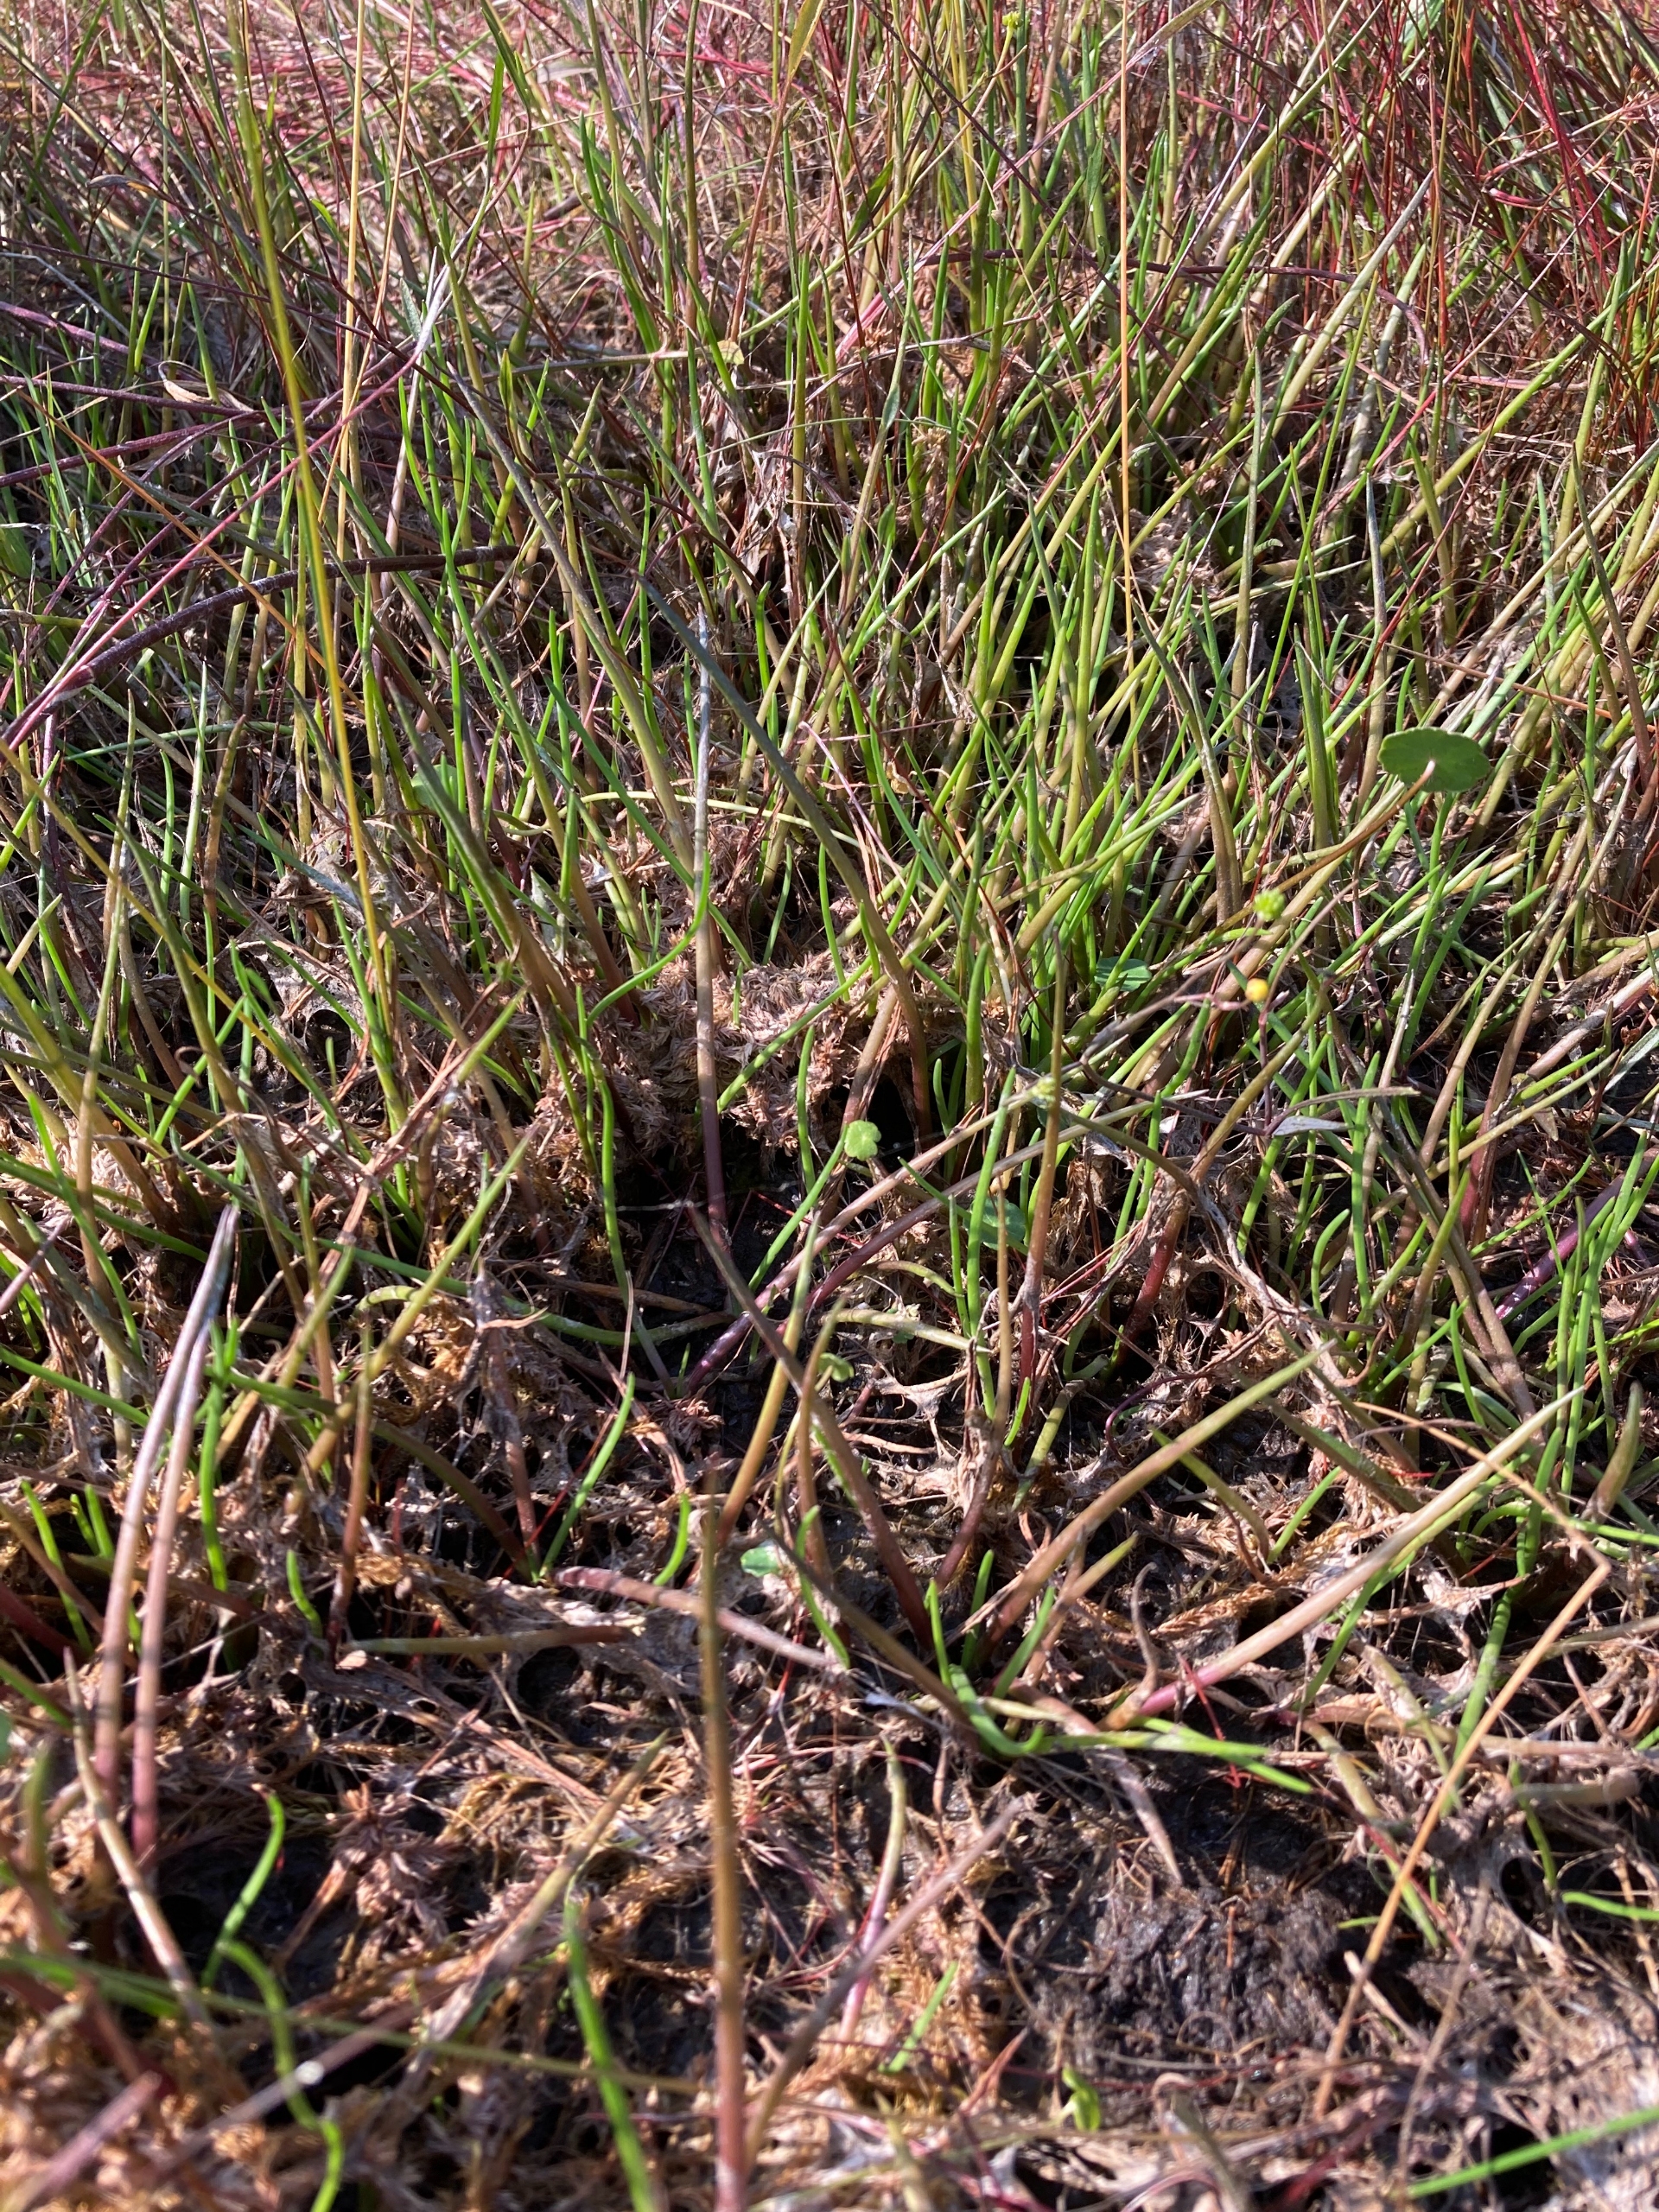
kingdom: Plantae
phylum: Tracheophyta
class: Magnoliopsida
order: Lamiales
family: Plantaginaceae
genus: Littorella
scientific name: Littorella uniflora
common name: Strandbo
